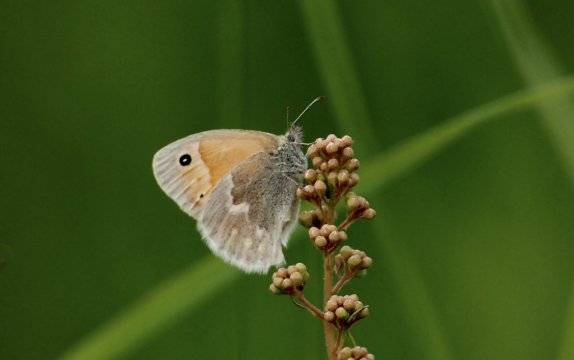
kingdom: Animalia
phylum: Arthropoda
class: Insecta
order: Lepidoptera
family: Nymphalidae
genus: Coenonympha
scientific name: Coenonympha tullia
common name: Large Heath
